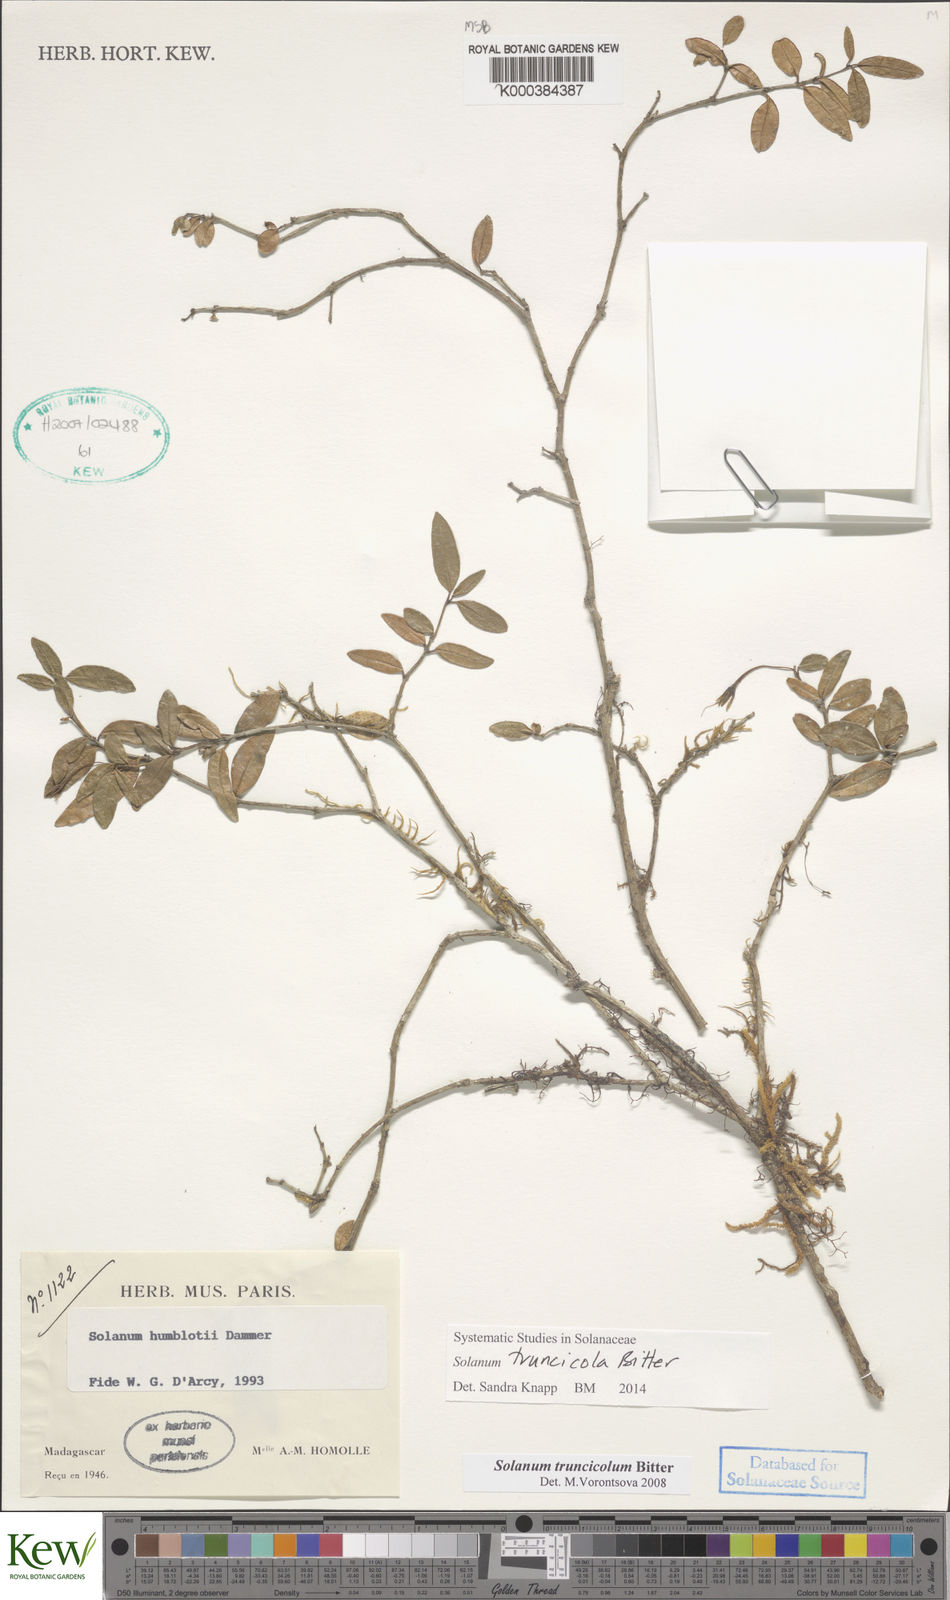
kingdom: Plantae
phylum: Tracheophyta
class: Magnoliopsida
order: Solanales
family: Solanaceae
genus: Solanum
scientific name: Solanum humblotii
